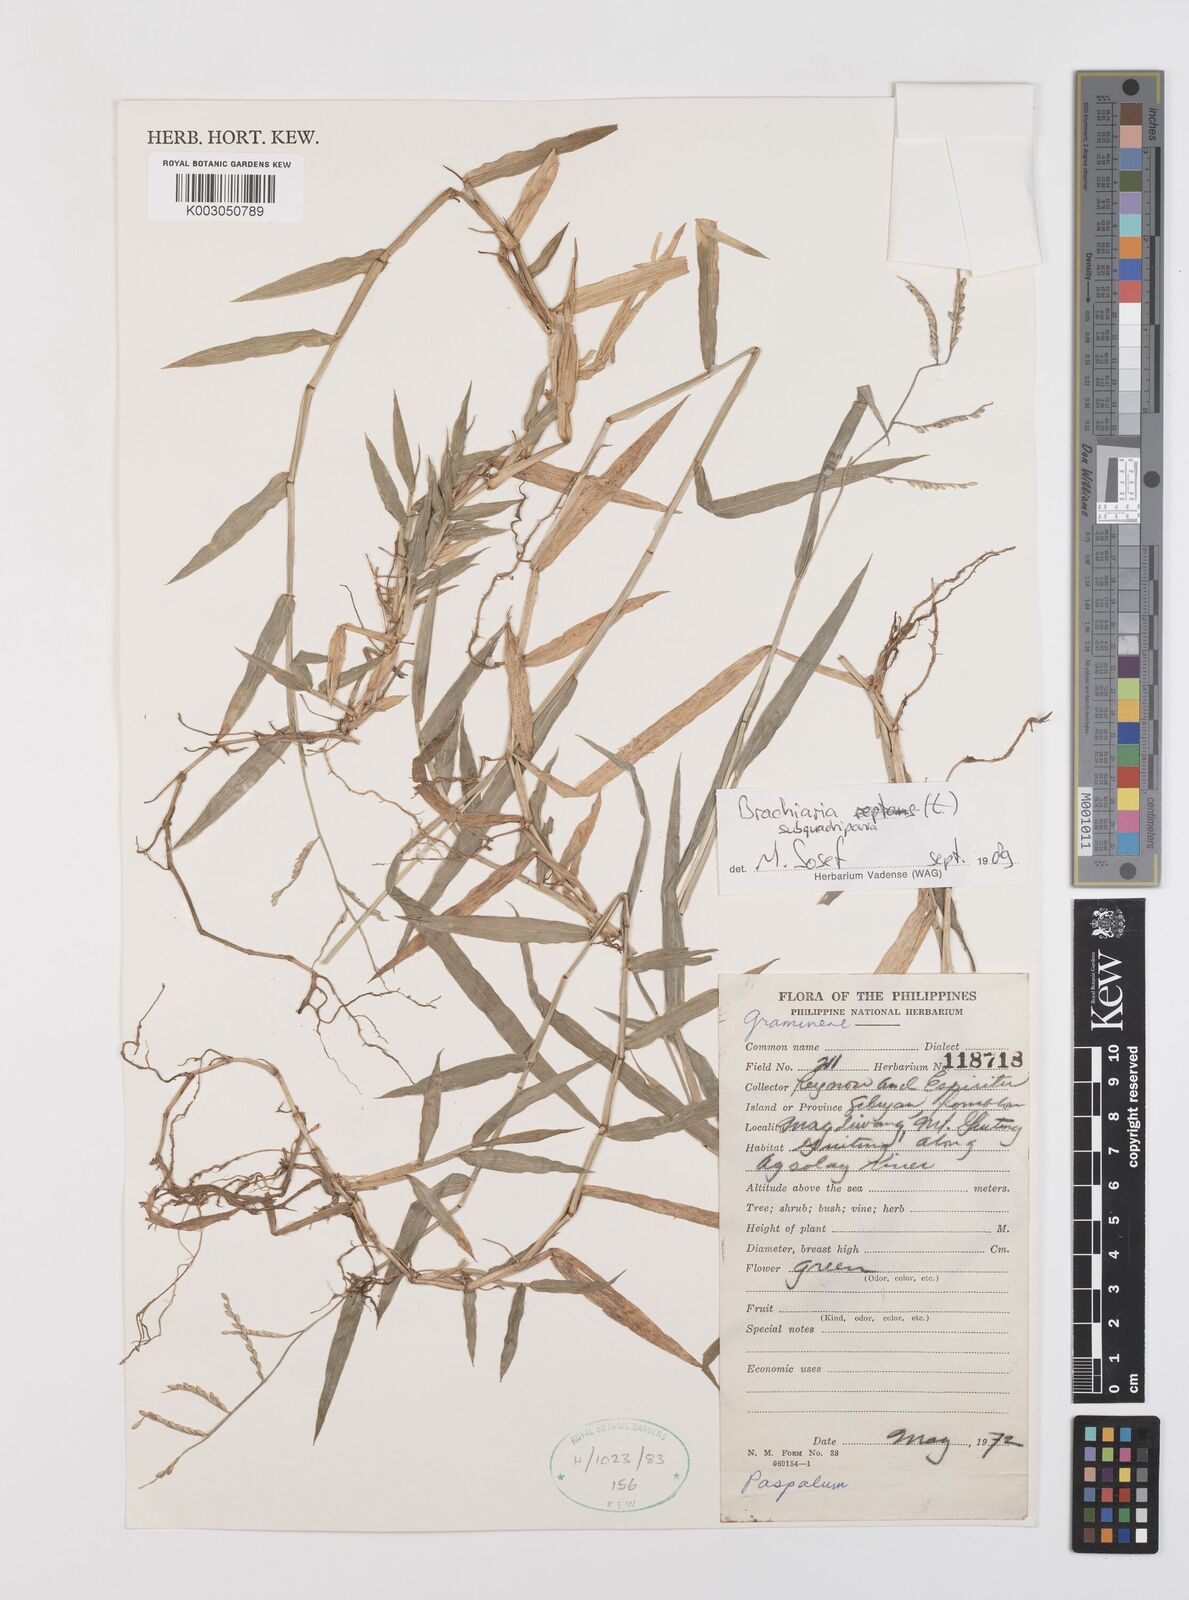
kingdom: Plantae
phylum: Tracheophyta
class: Liliopsida
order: Poales
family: Poaceae
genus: Urochloa
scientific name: Urochloa subquadripara
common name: Armgrass millet
